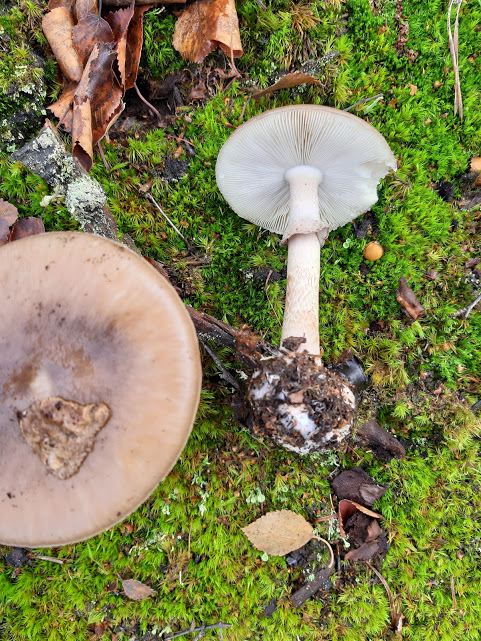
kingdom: Fungi
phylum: Basidiomycota
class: Agaricomycetes
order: Agaricales
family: Amanitaceae
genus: Amanita
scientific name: Amanita porphyria
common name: porfyr-fluesvamp
